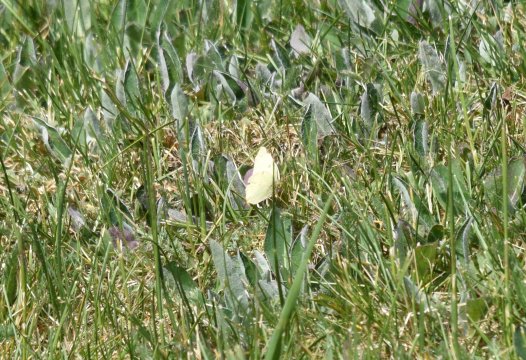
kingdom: Animalia
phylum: Arthropoda
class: Insecta
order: Lepidoptera
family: Pieridae
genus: Colias
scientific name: Colias philodice
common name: Clouded Sulphur
